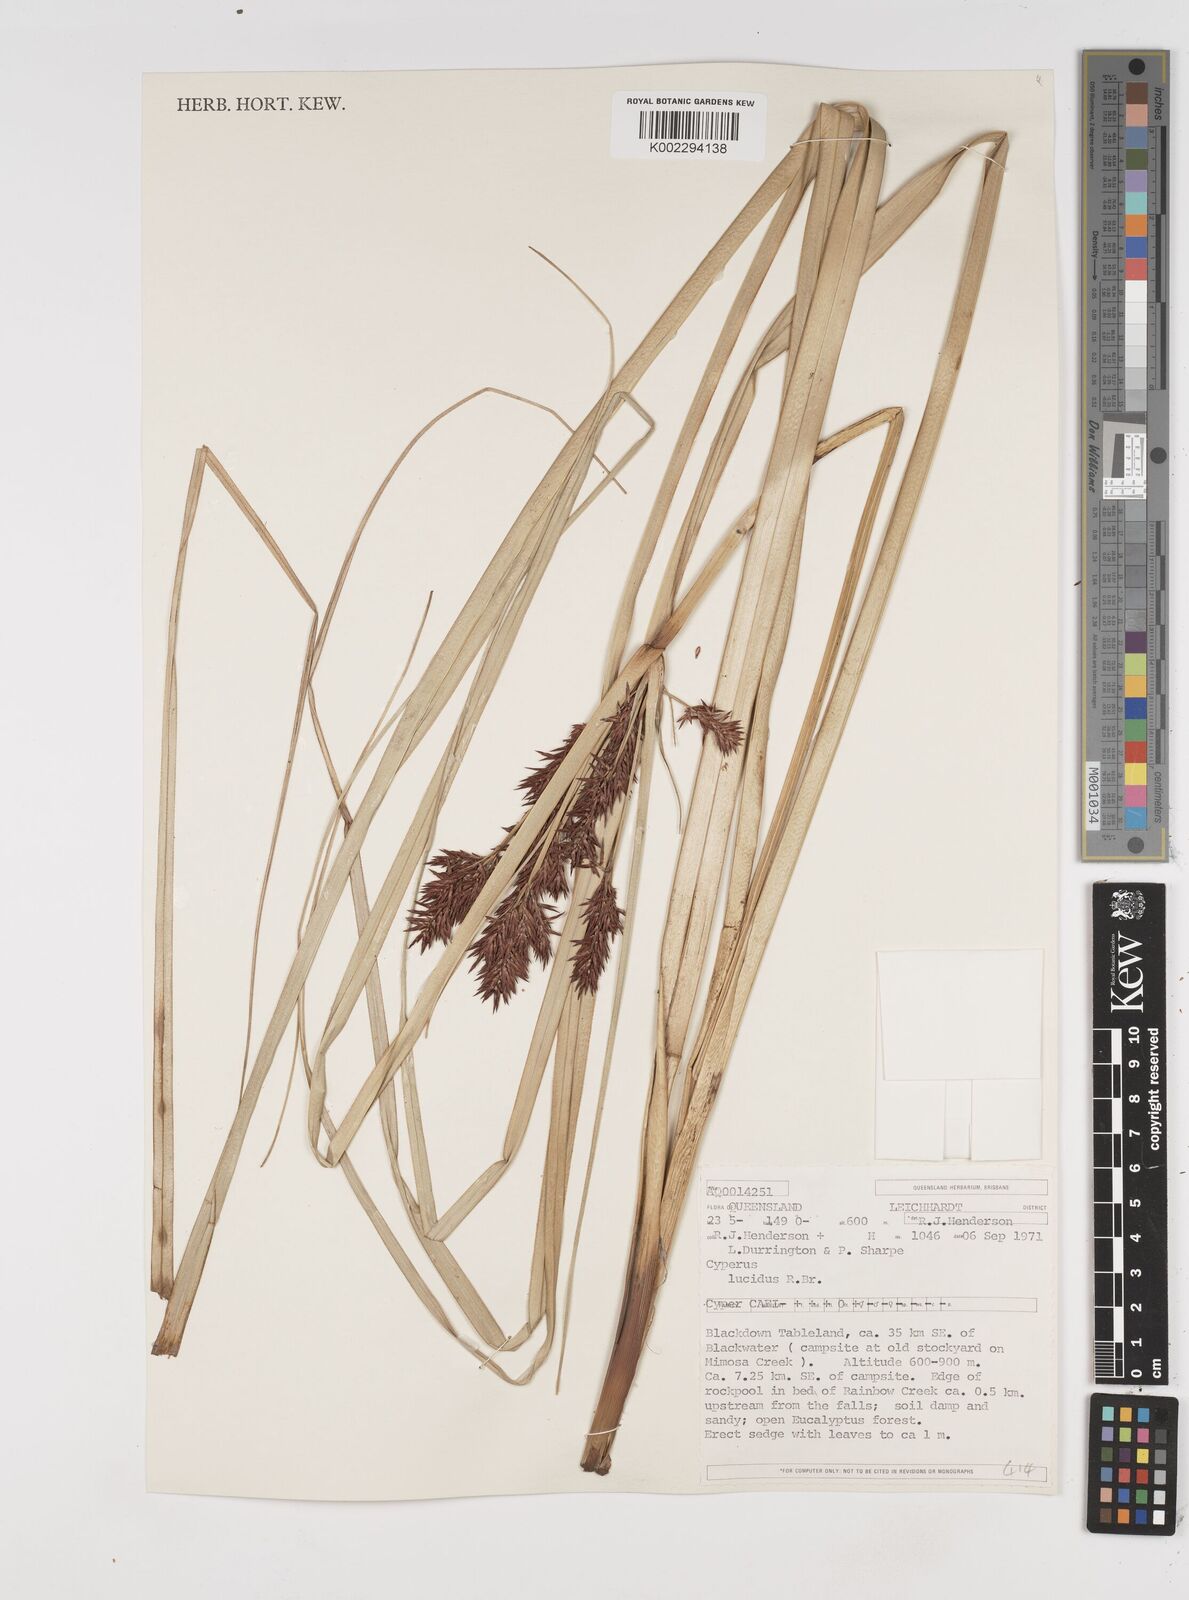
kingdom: Plantae
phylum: Tracheophyta
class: Liliopsida
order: Poales
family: Cyperaceae
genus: Cyperus
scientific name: Cyperus lucidus
